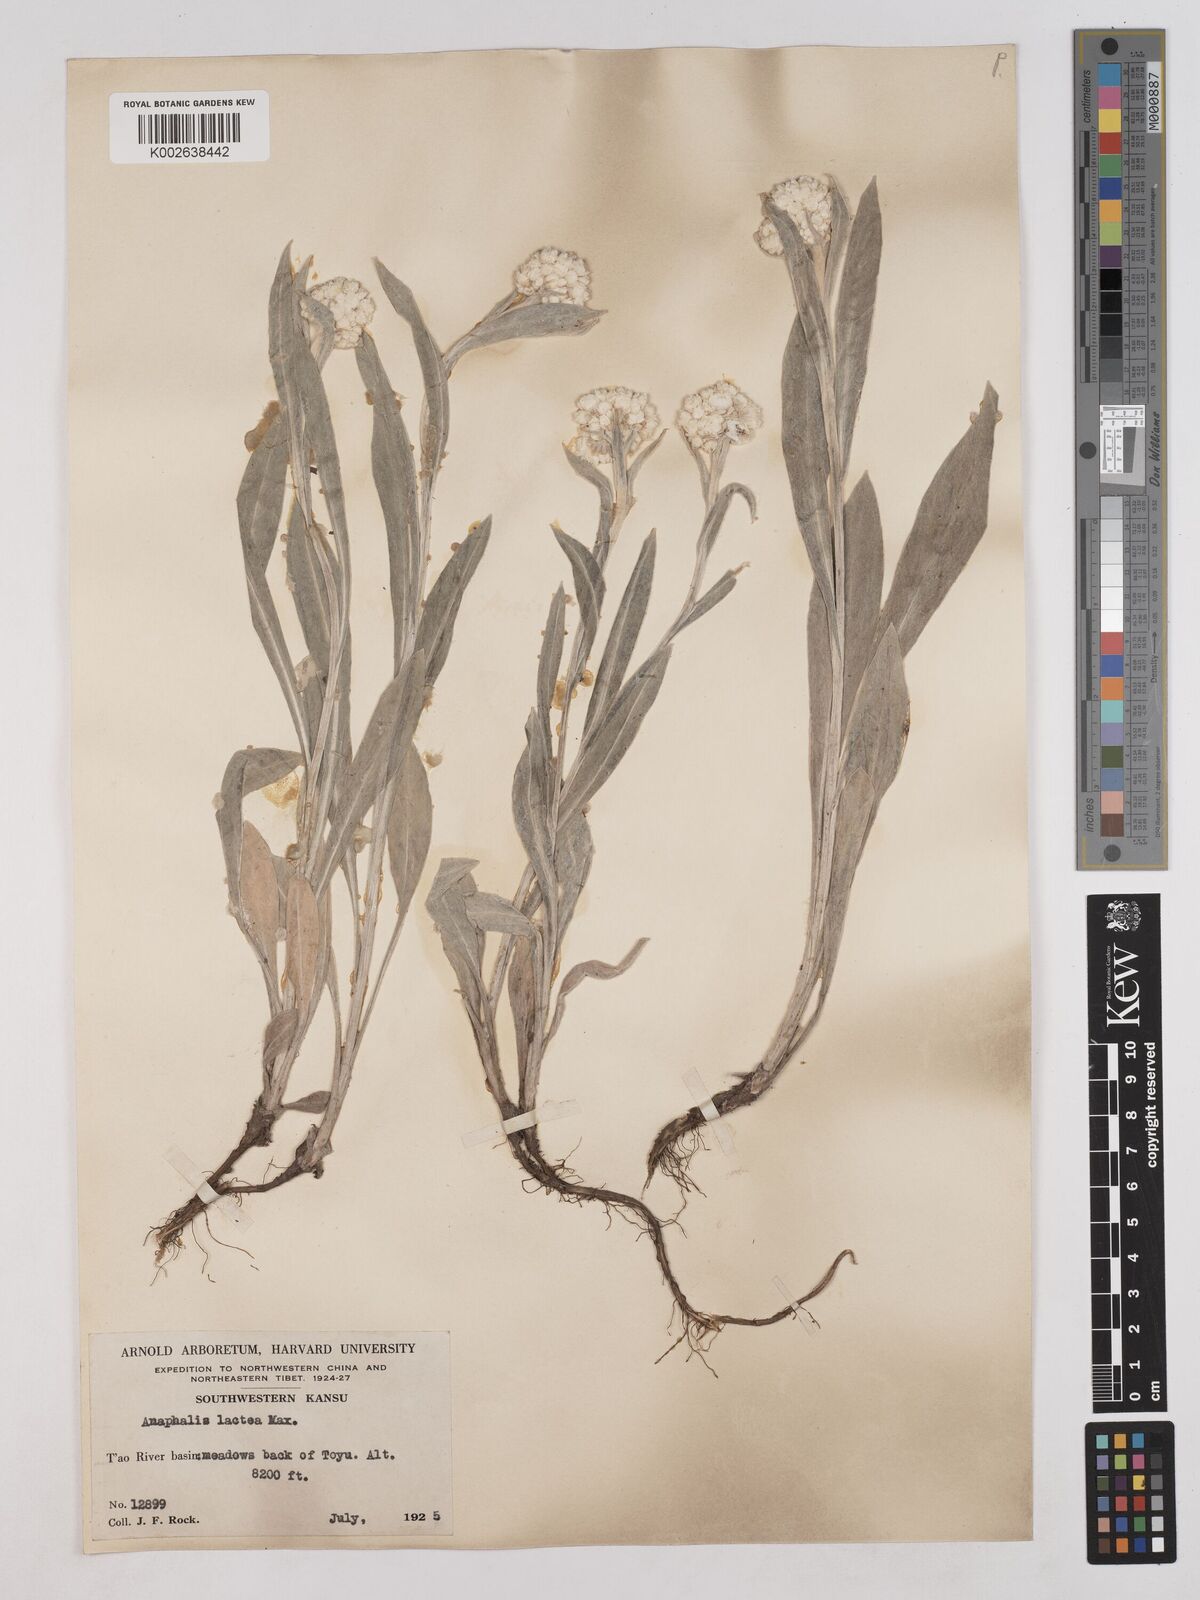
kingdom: Plantae
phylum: Tracheophyta
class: Magnoliopsida
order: Asterales
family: Asteraceae
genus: Anaphalis
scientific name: Anaphalis lactea
